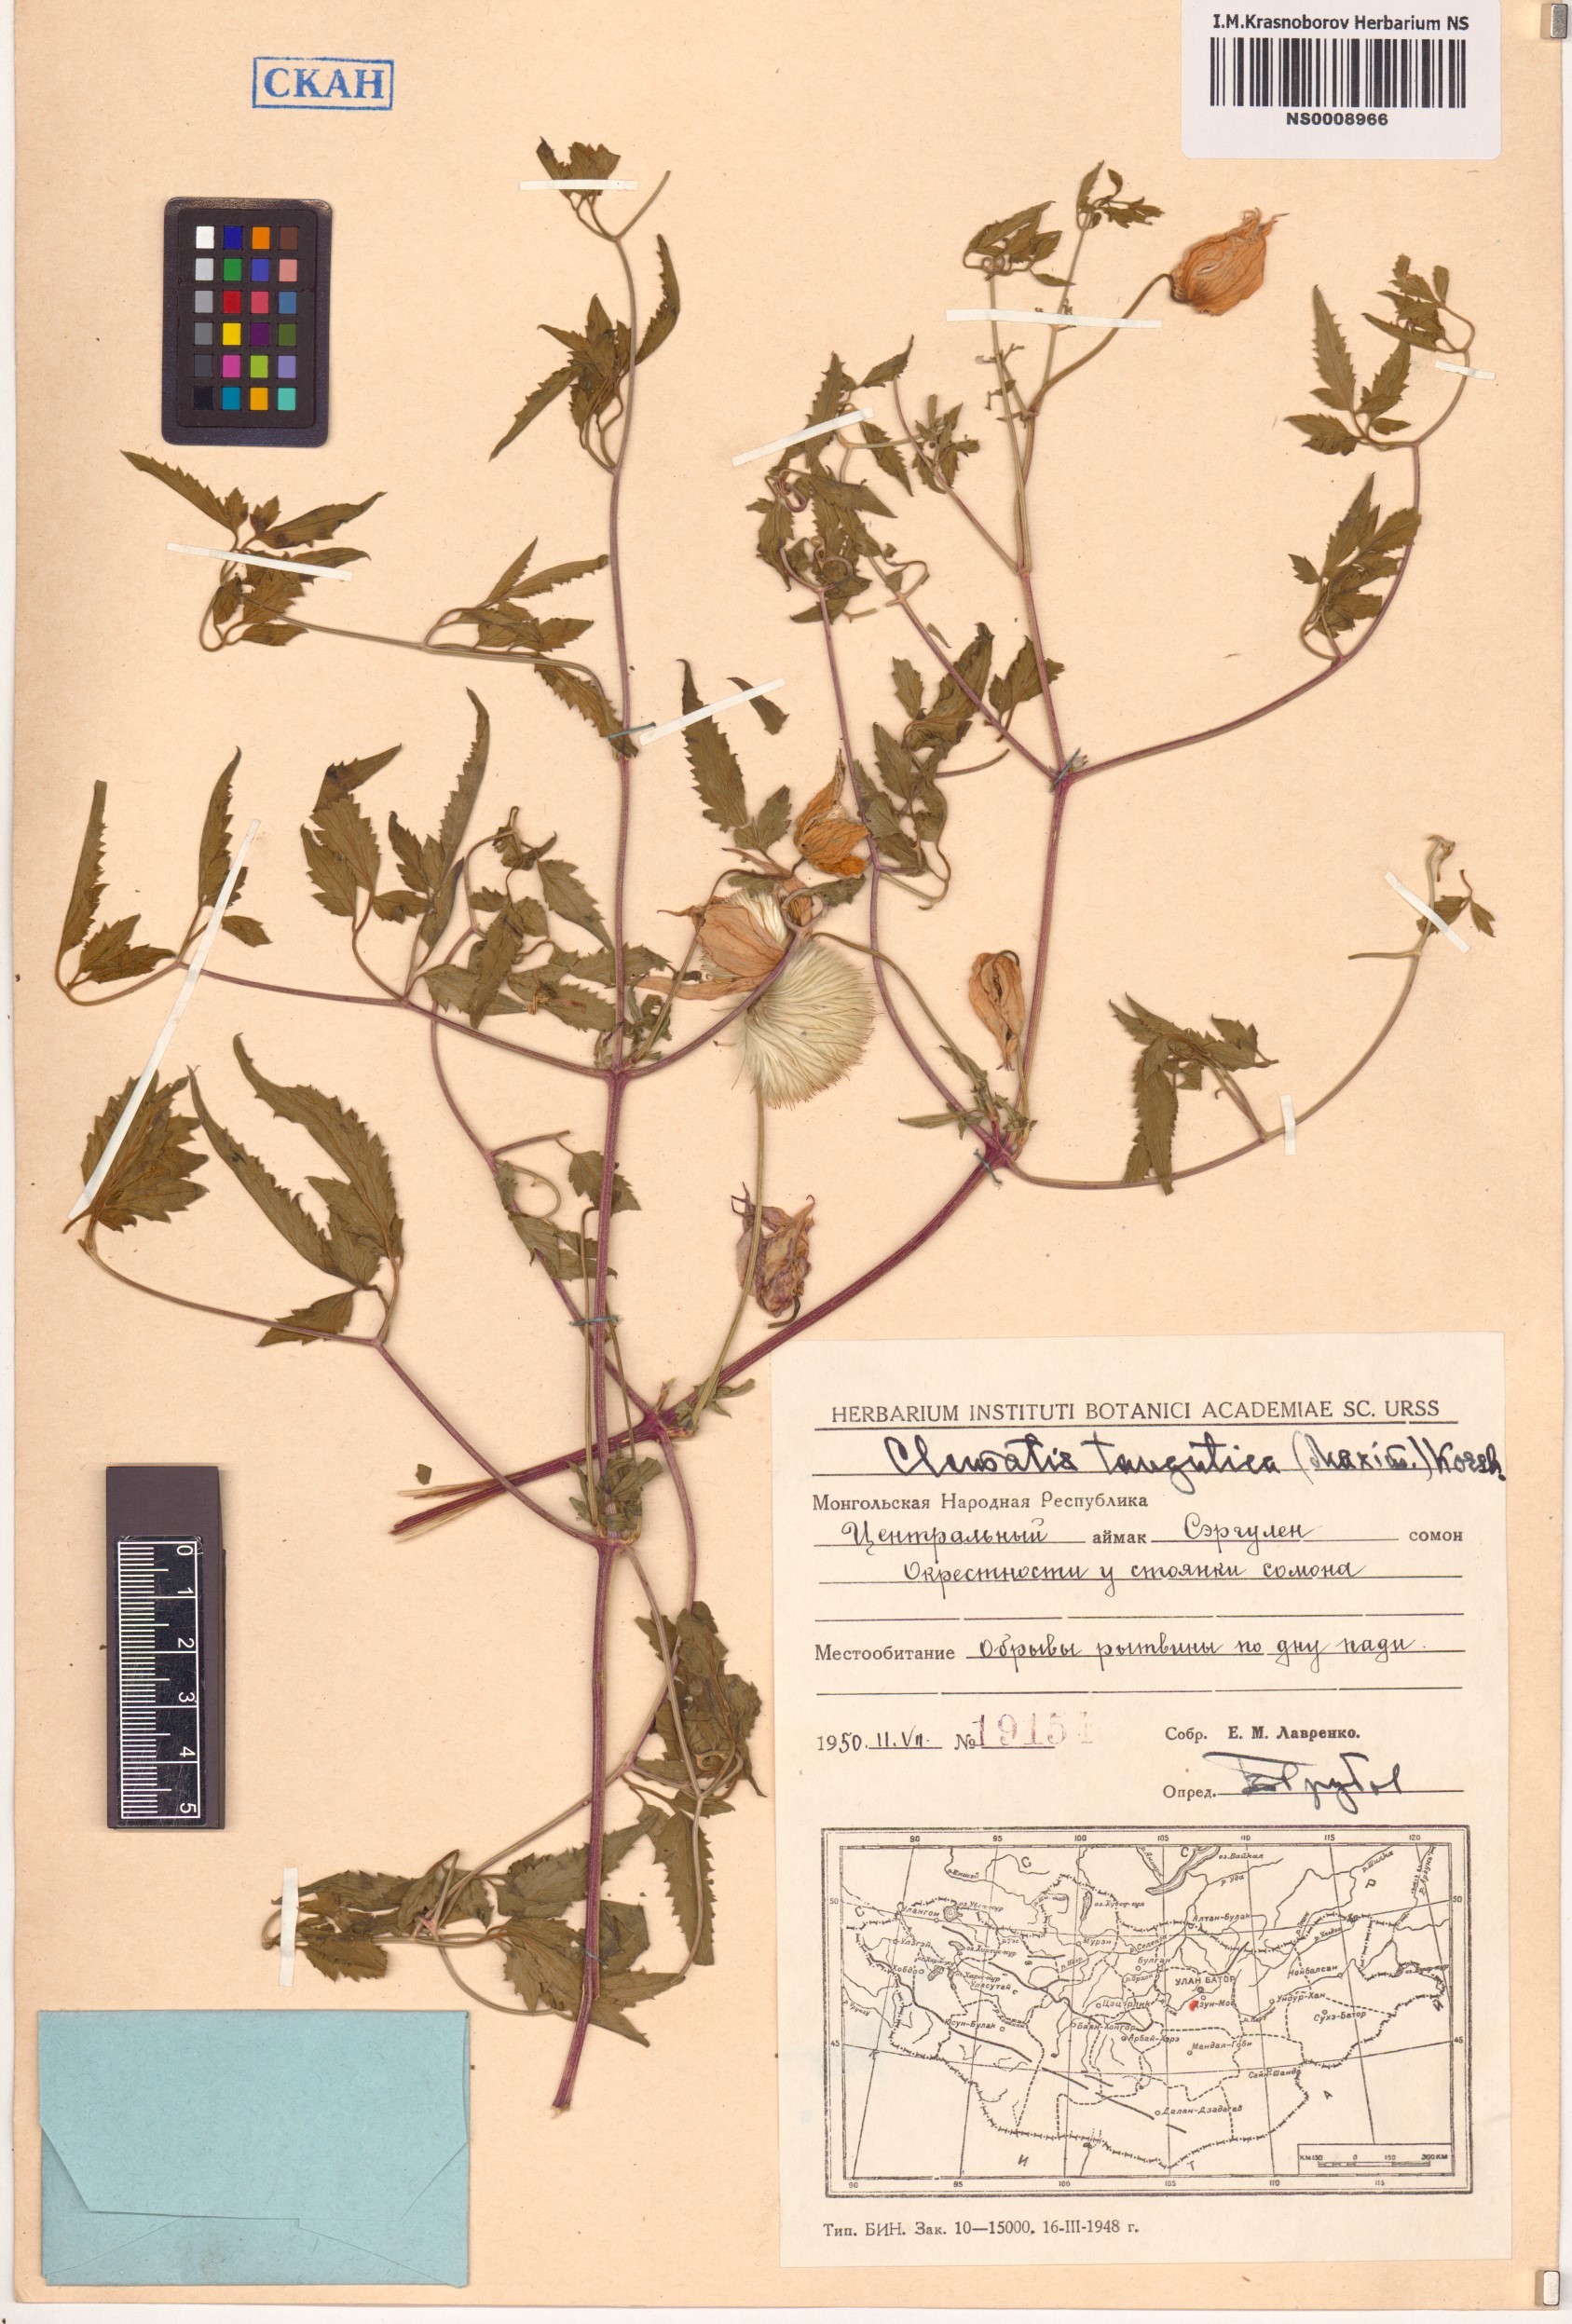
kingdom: Plantae
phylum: Tracheophyta
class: Magnoliopsida
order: Ranunculales
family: Ranunculaceae
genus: Clematis
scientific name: Clematis tangutica
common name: Orange-peel clematis
